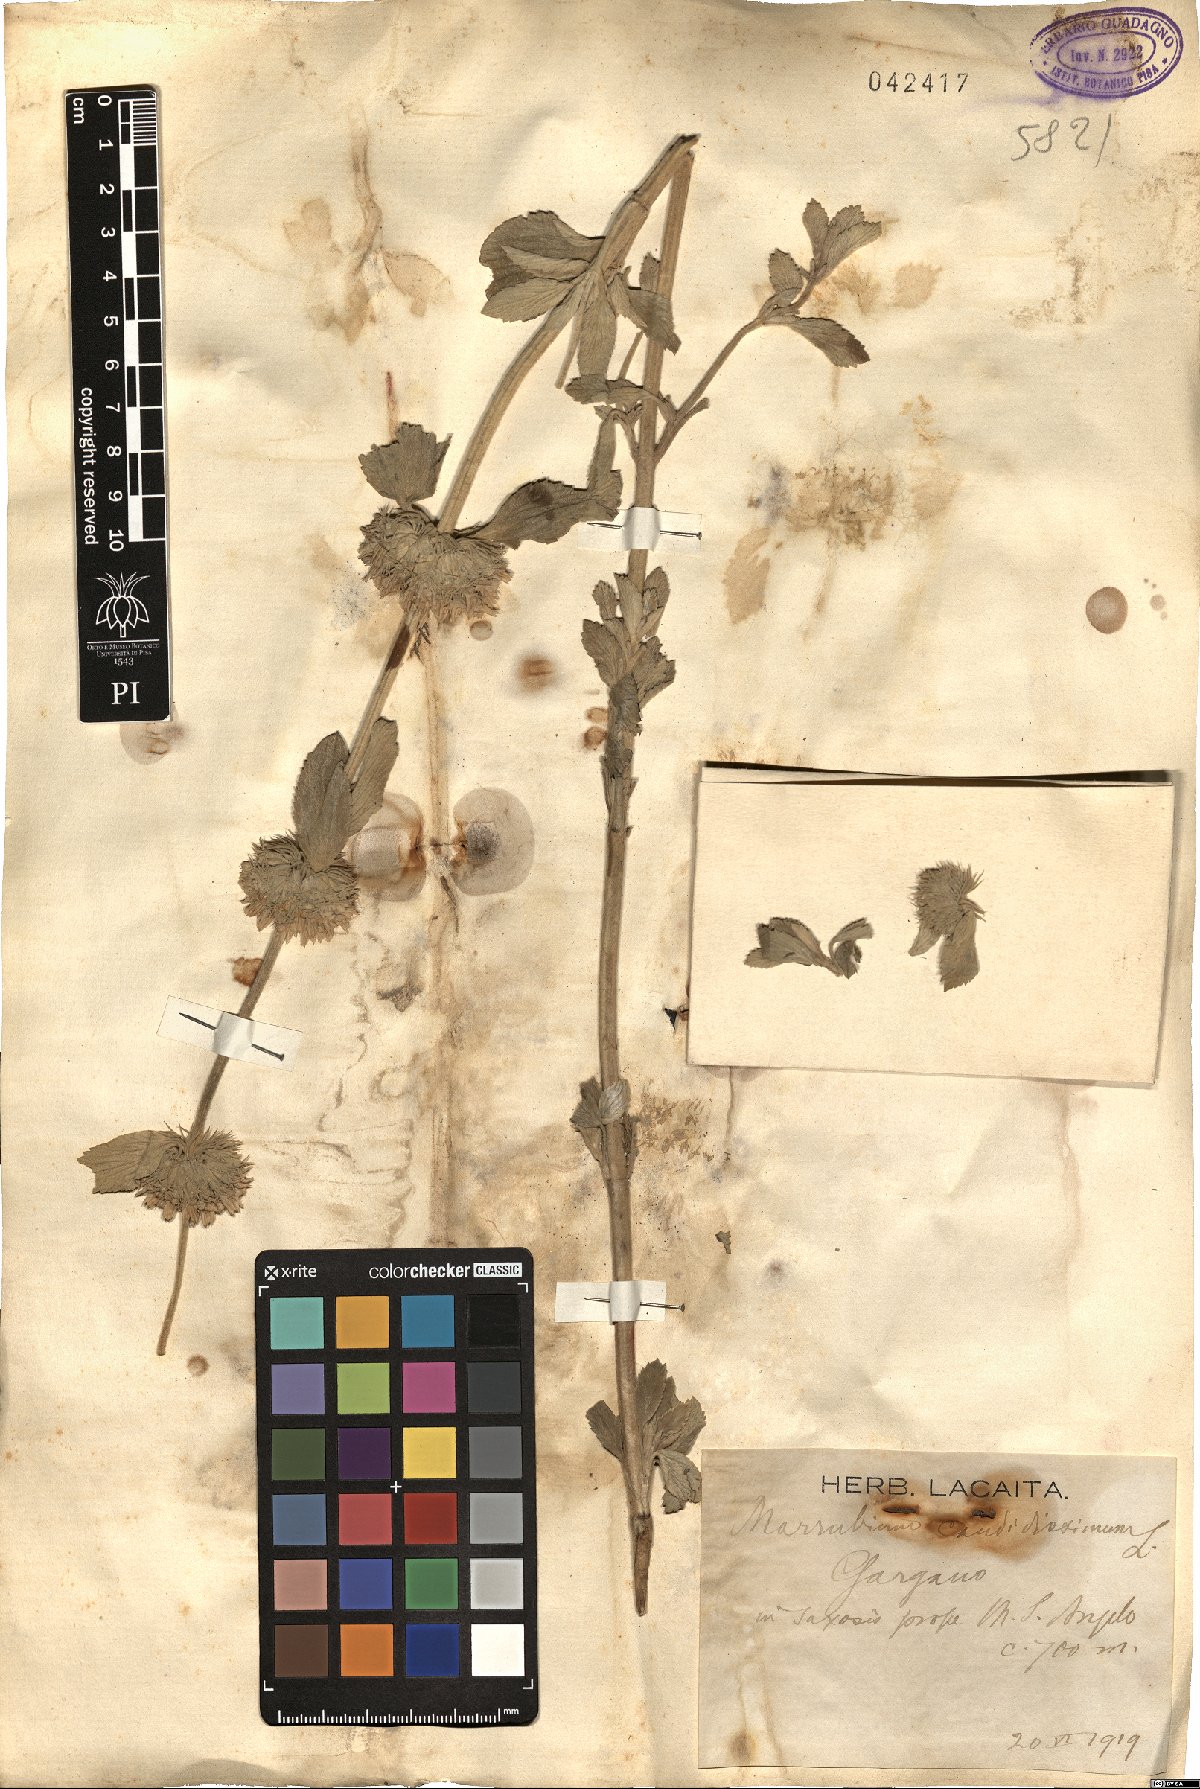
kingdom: Plantae
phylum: Tracheophyta
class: Magnoliopsida
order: Lamiales
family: Lamiaceae
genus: Marrubium
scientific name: Marrubium peregrinum
